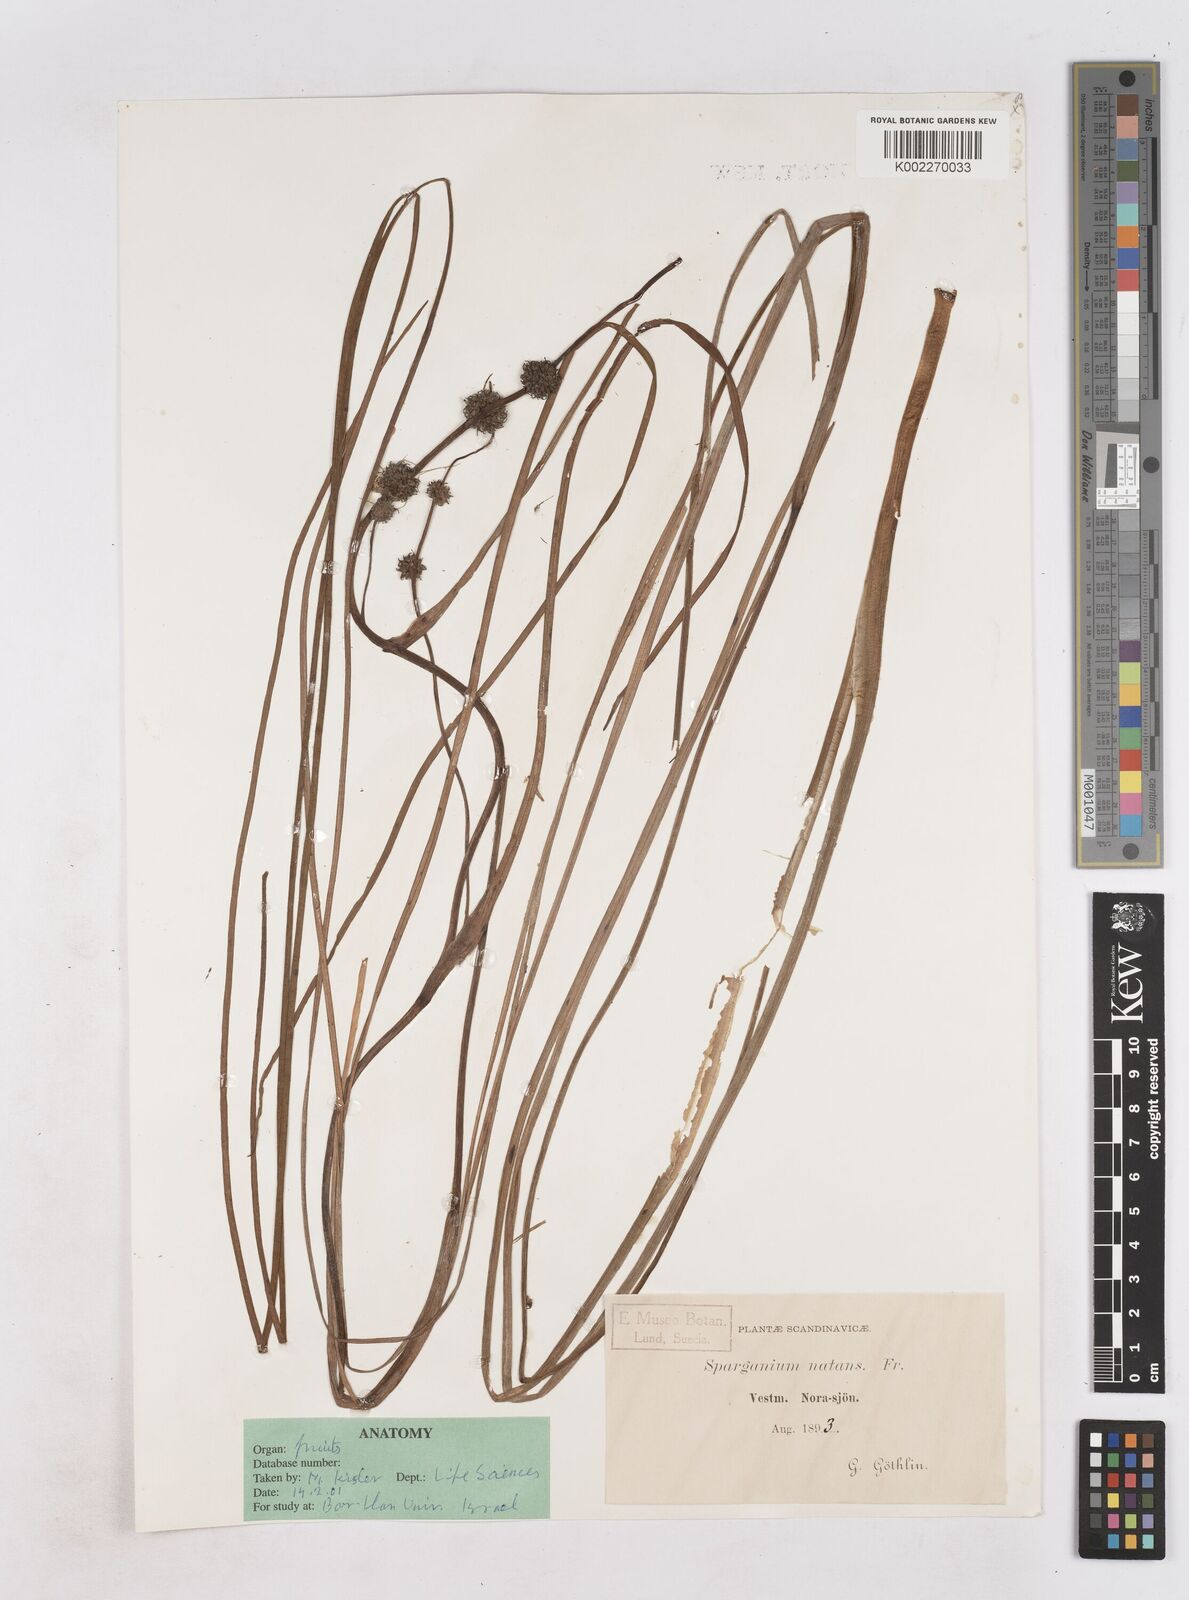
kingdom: Plantae
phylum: Tracheophyta
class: Liliopsida
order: Poales
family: Typhaceae
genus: Sparganium
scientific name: Sparganium gramineum
